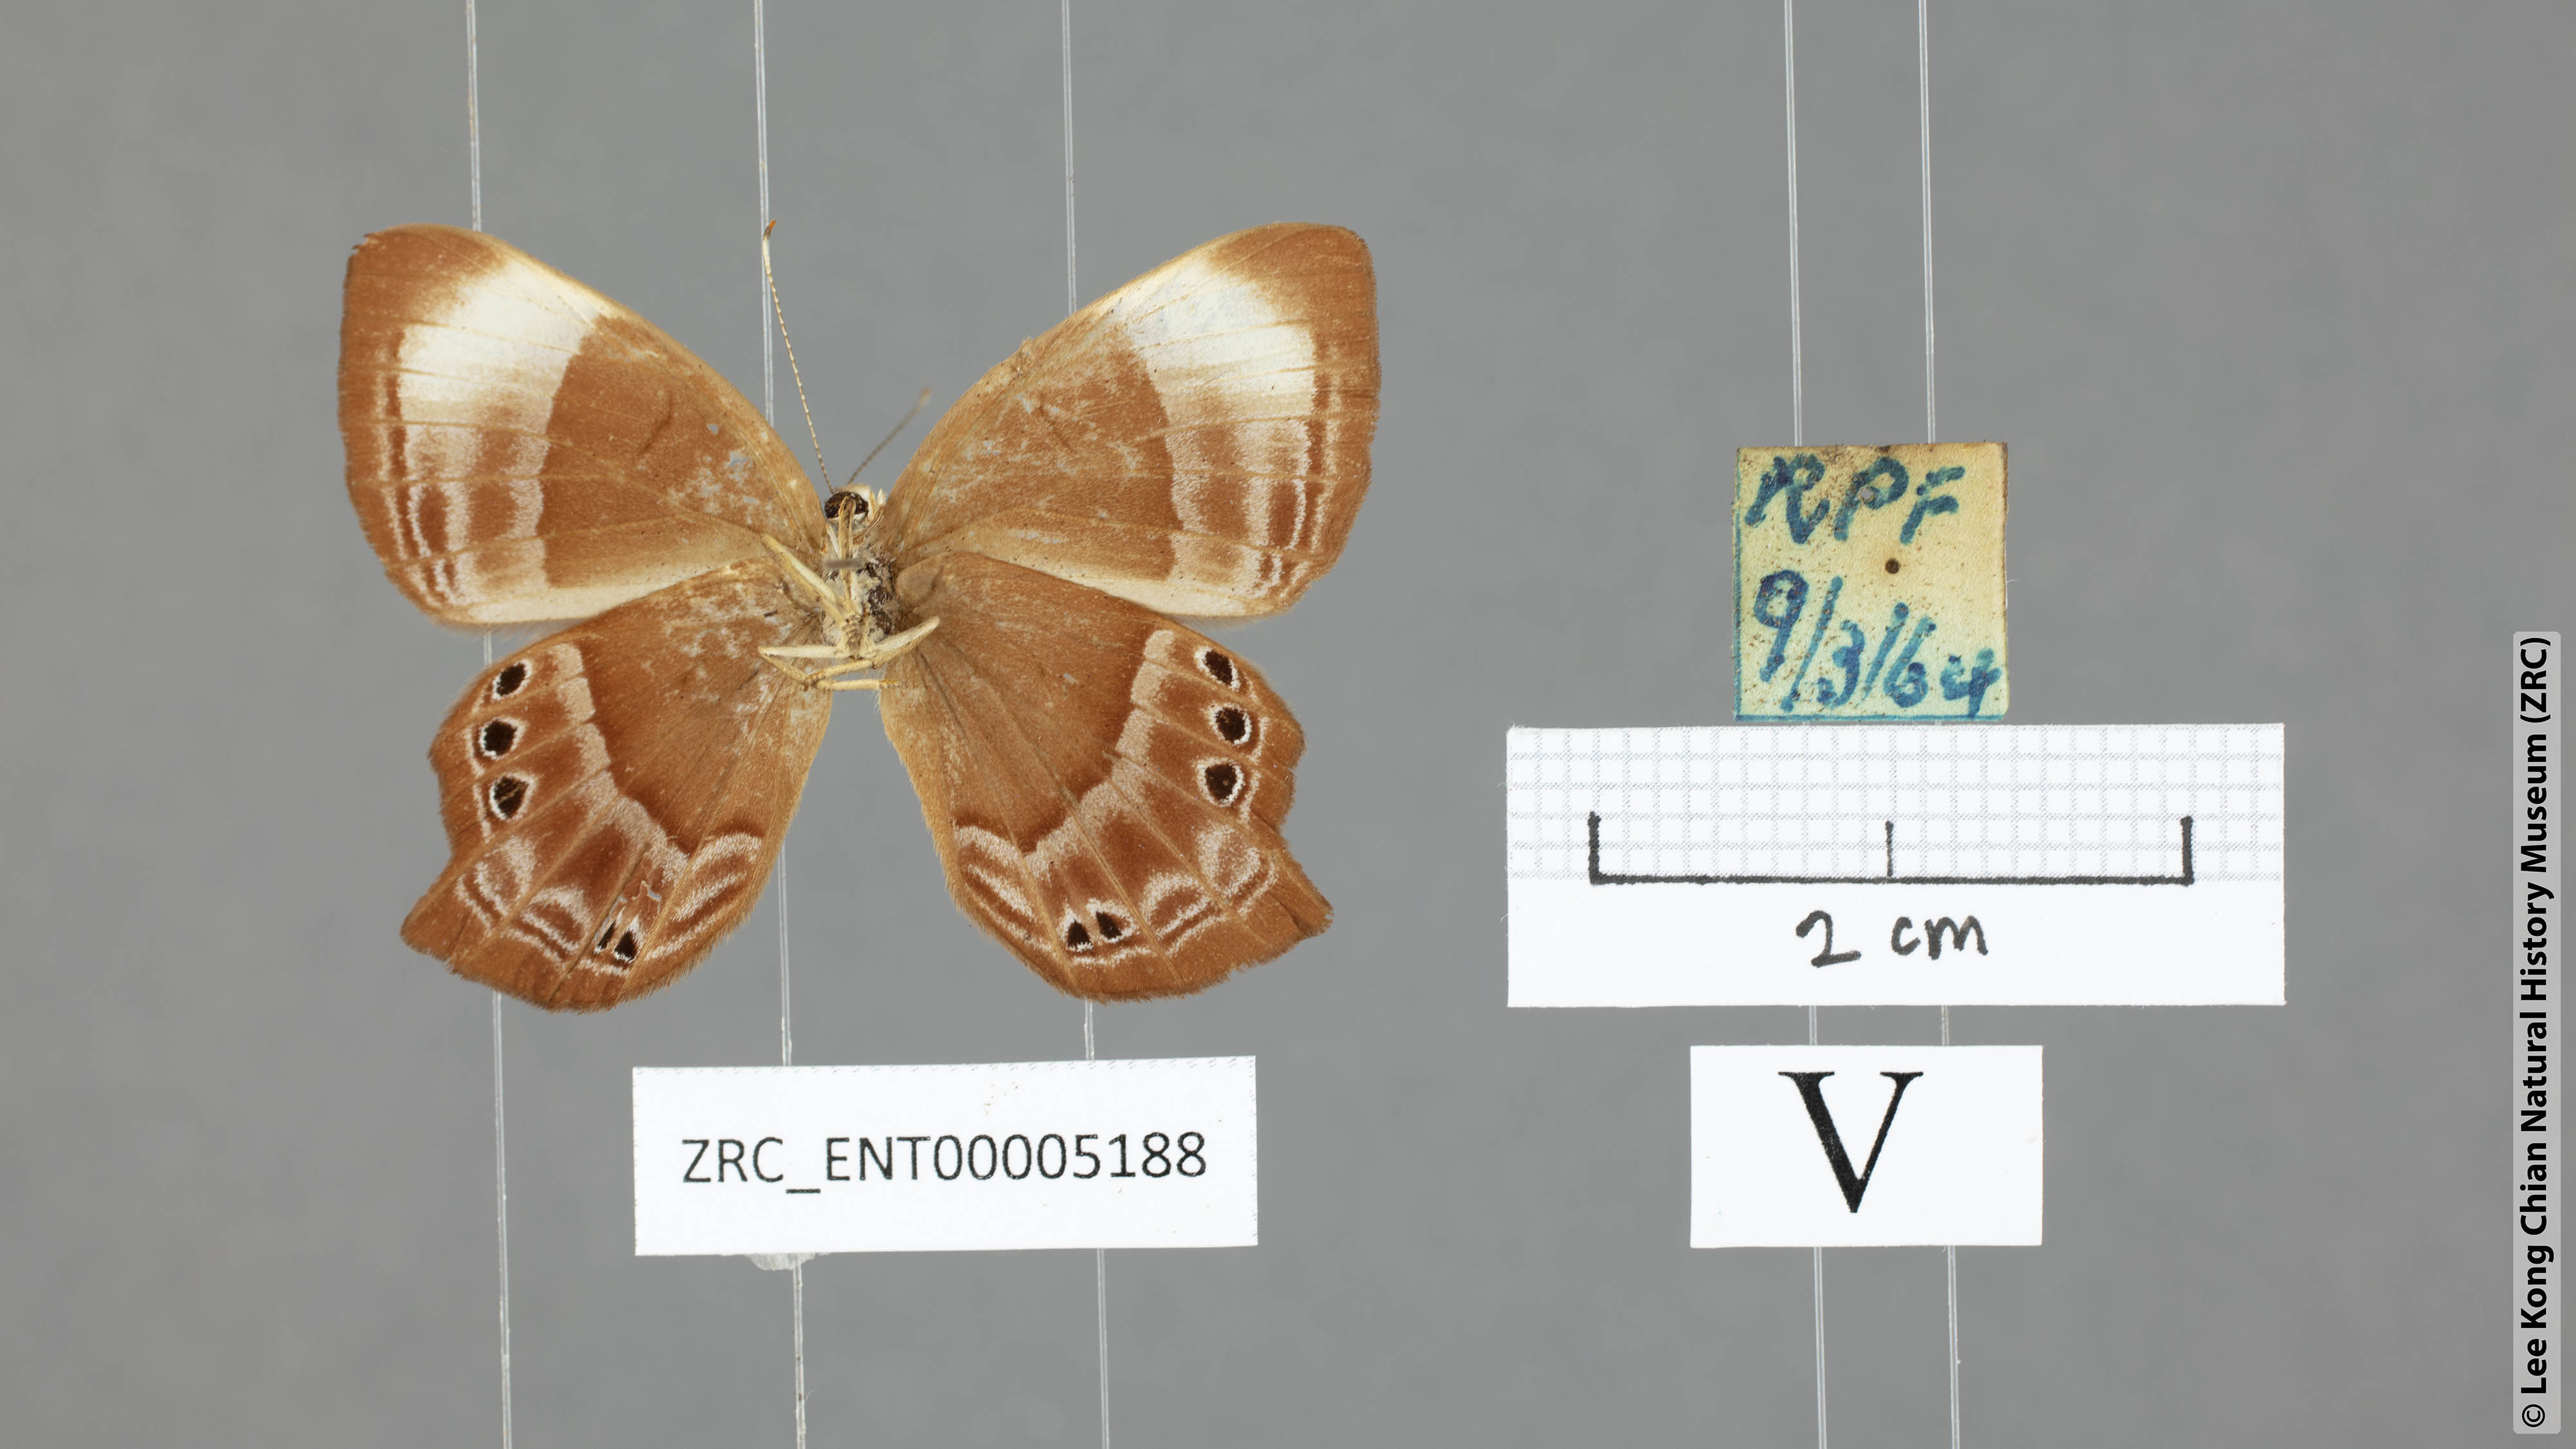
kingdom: Animalia
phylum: Arthropoda
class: Insecta
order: Lepidoptera
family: Lycaenidae
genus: Abisara
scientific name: Abisara saturata
